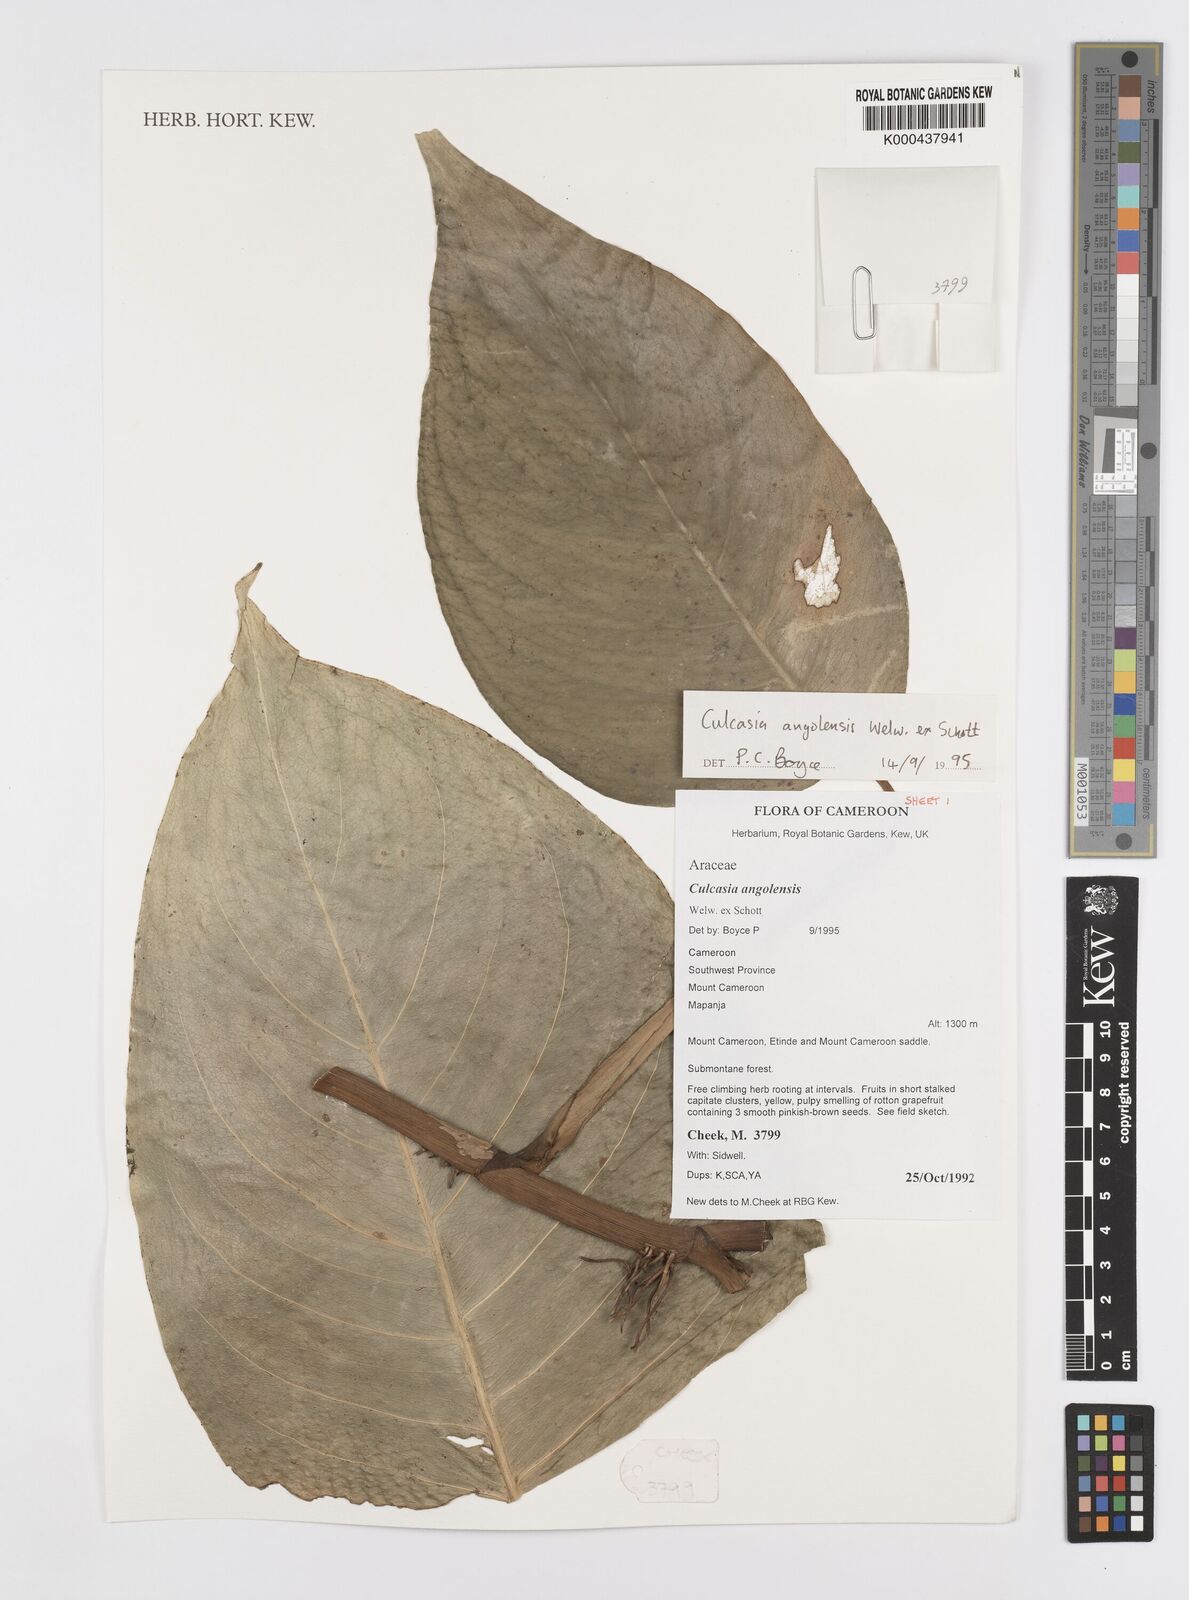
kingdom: Plantae
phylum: Tracheophyta
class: Liliopsida
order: Alismatales
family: Araceae
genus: Culcasia
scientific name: Culcasia angolensis
